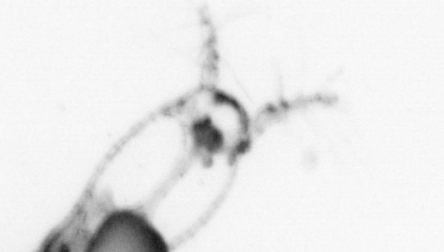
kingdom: Animalia
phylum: Arthropoda
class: Copepoda
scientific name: Copepoda
